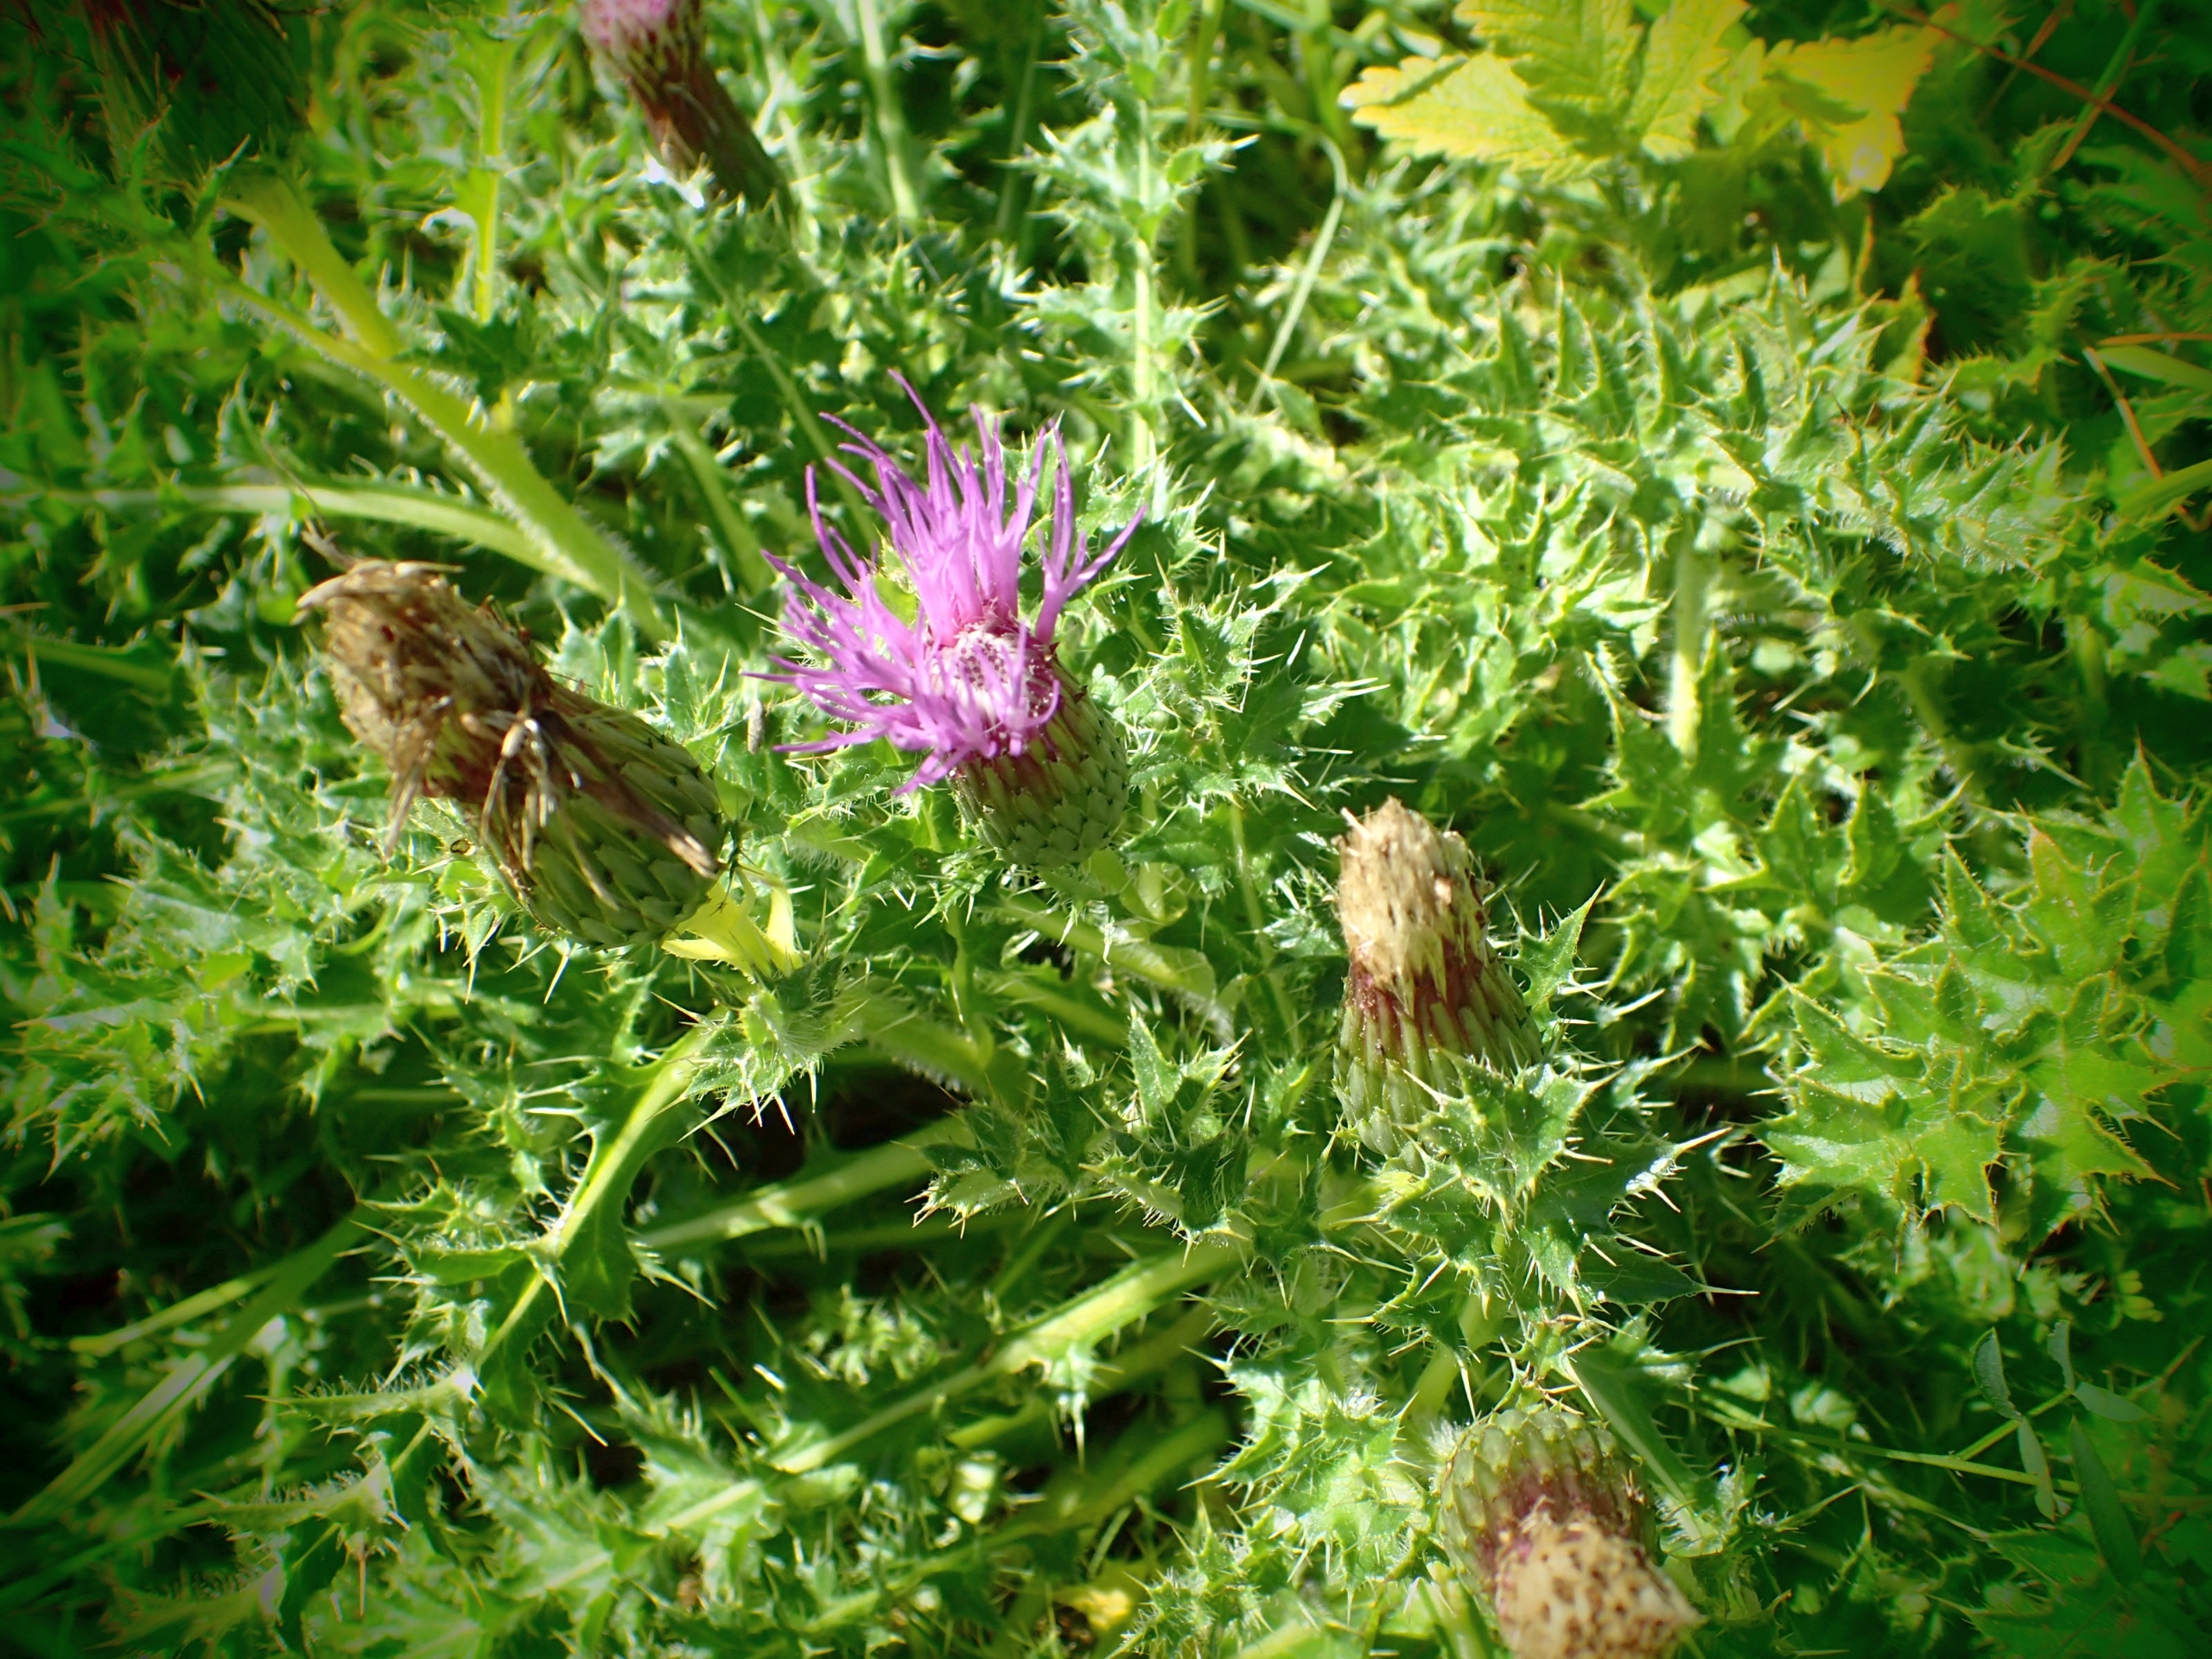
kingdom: Plantae
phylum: Tracheophyta
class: Magnoliopsida
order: Asterales
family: Asteraceae
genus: Cirsium
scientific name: Cirsium acaule
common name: Lav tidsel
